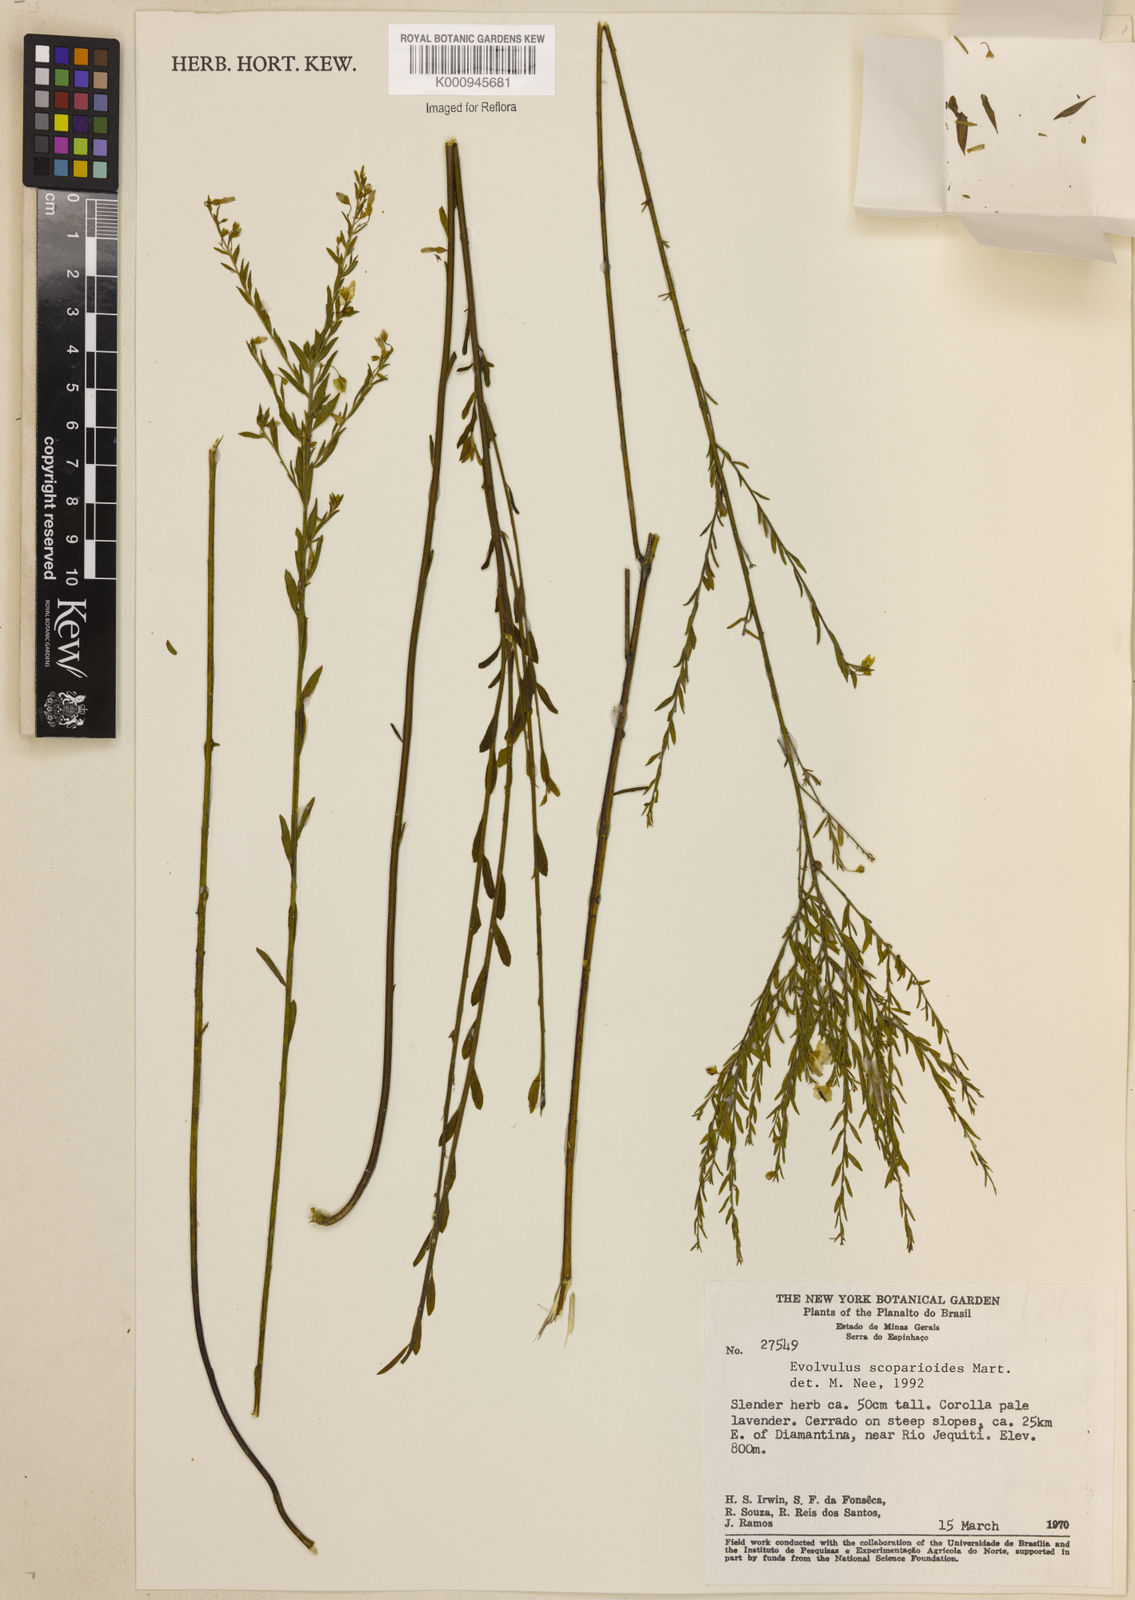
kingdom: Plantae
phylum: Tracheophyta
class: Magnoliopsida
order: Solanales
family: Convolvulaceae
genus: Evolvulus
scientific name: Evolvulus scoparioides
